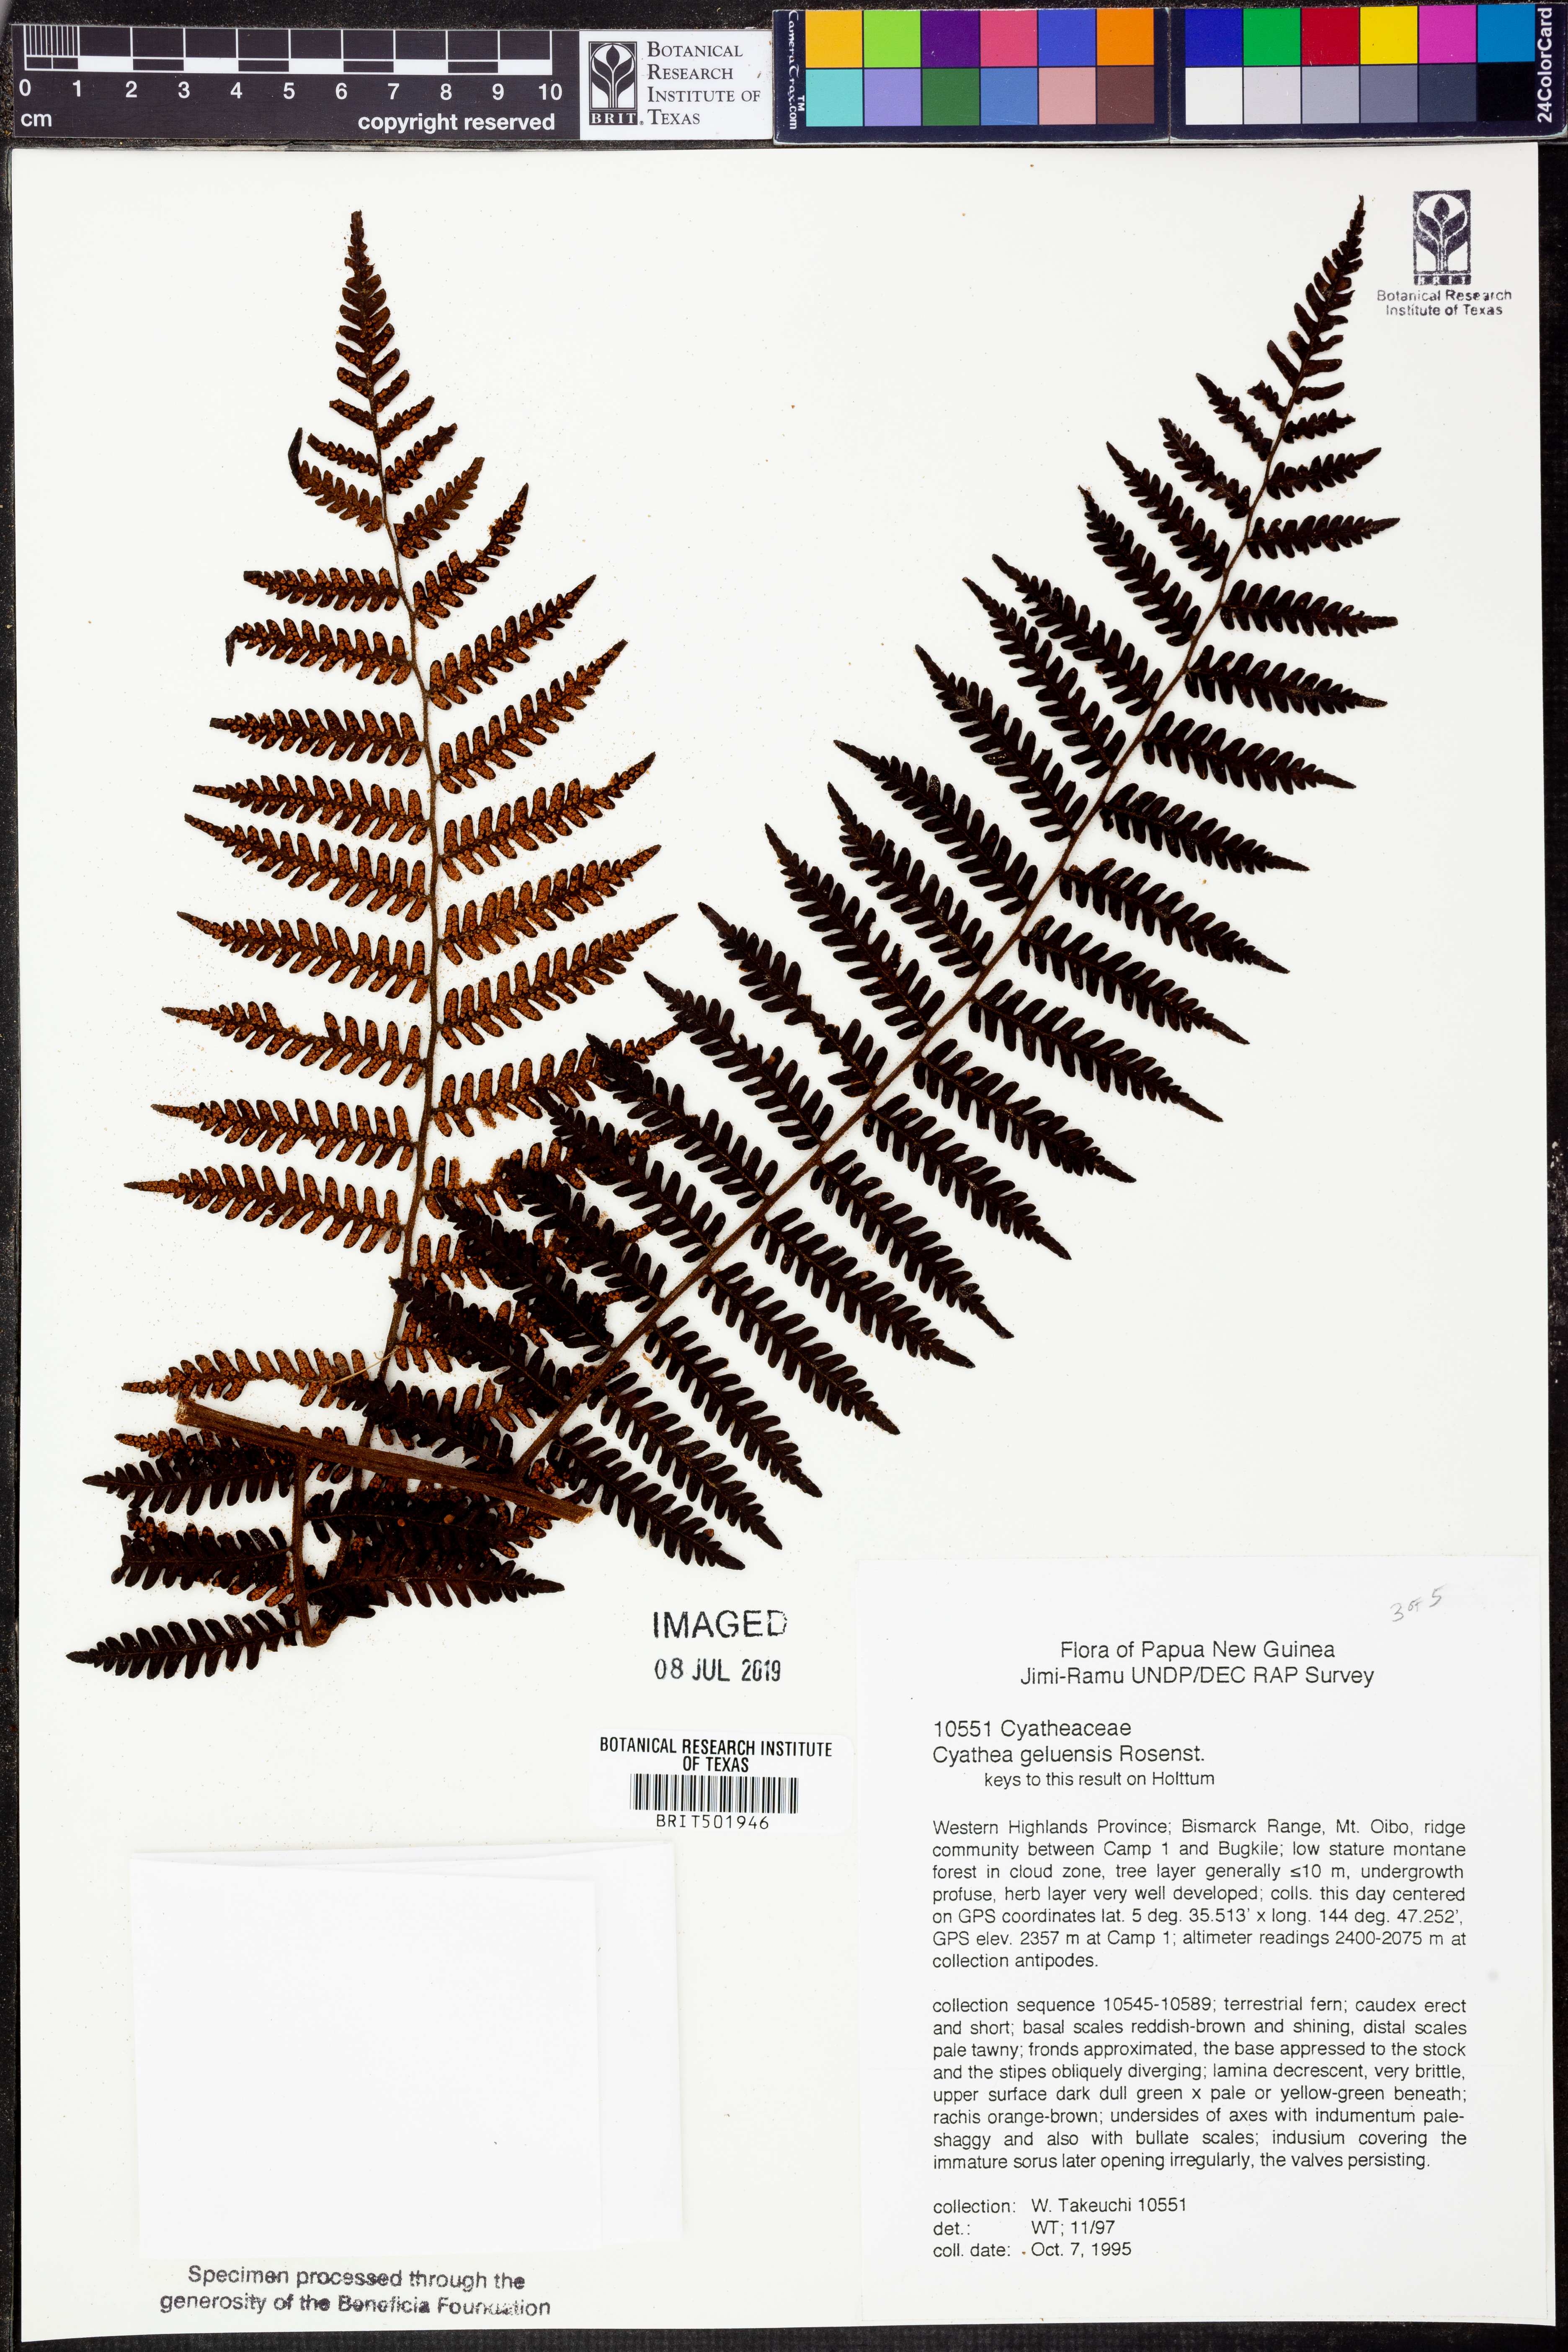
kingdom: Plantae
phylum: Tracheophyta
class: Polypodiopsida
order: Cyatheales
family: Cyatheaceae
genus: Alsophila
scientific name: Alsophila geluensis
